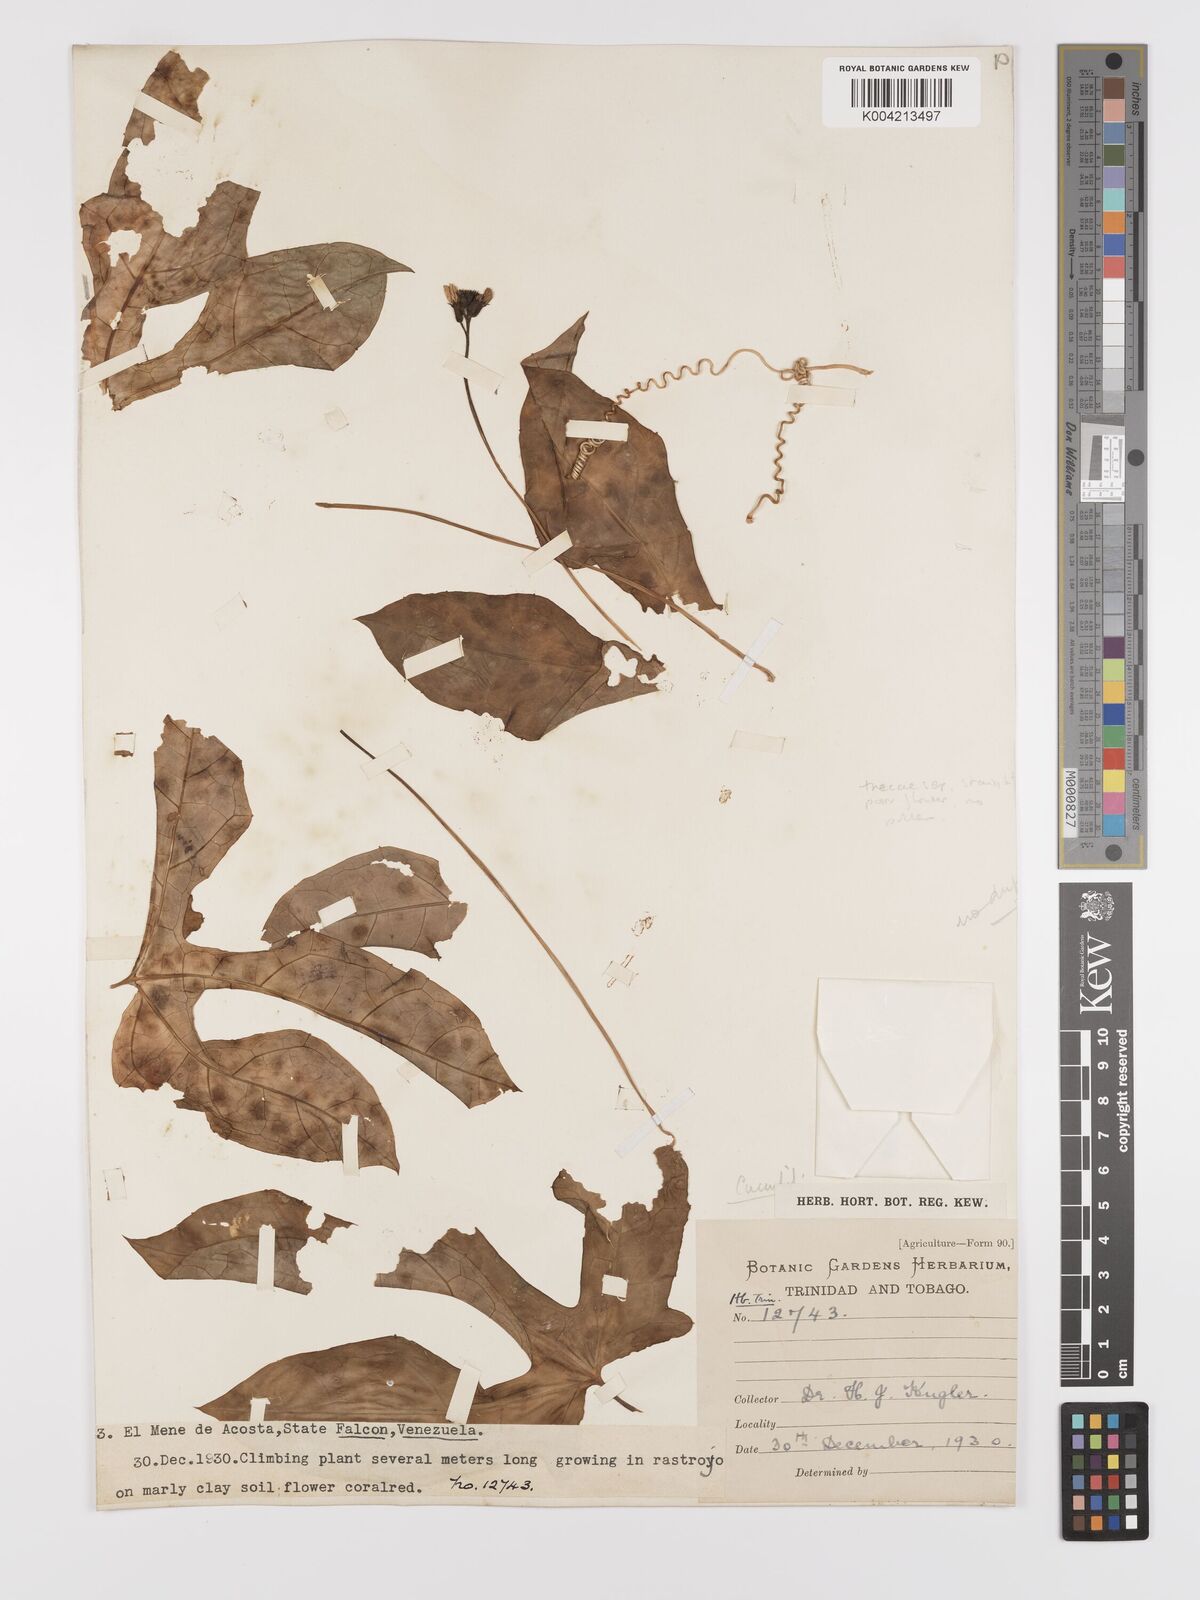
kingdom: Plantae
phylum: Tracheophyta
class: Magnoliopsida
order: Cucurbitales
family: Cucurbitaceae
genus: Psiguria
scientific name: Psiguria
